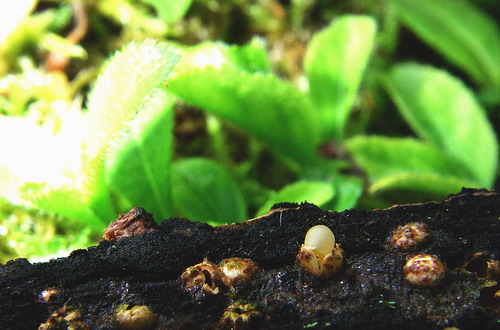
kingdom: Fungi
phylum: Basidiomycota
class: Agaricomycetes
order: Geastrales
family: Geastraceae
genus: Sphaerobolus
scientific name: Sphaerobolus stellatus
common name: bombekaster
